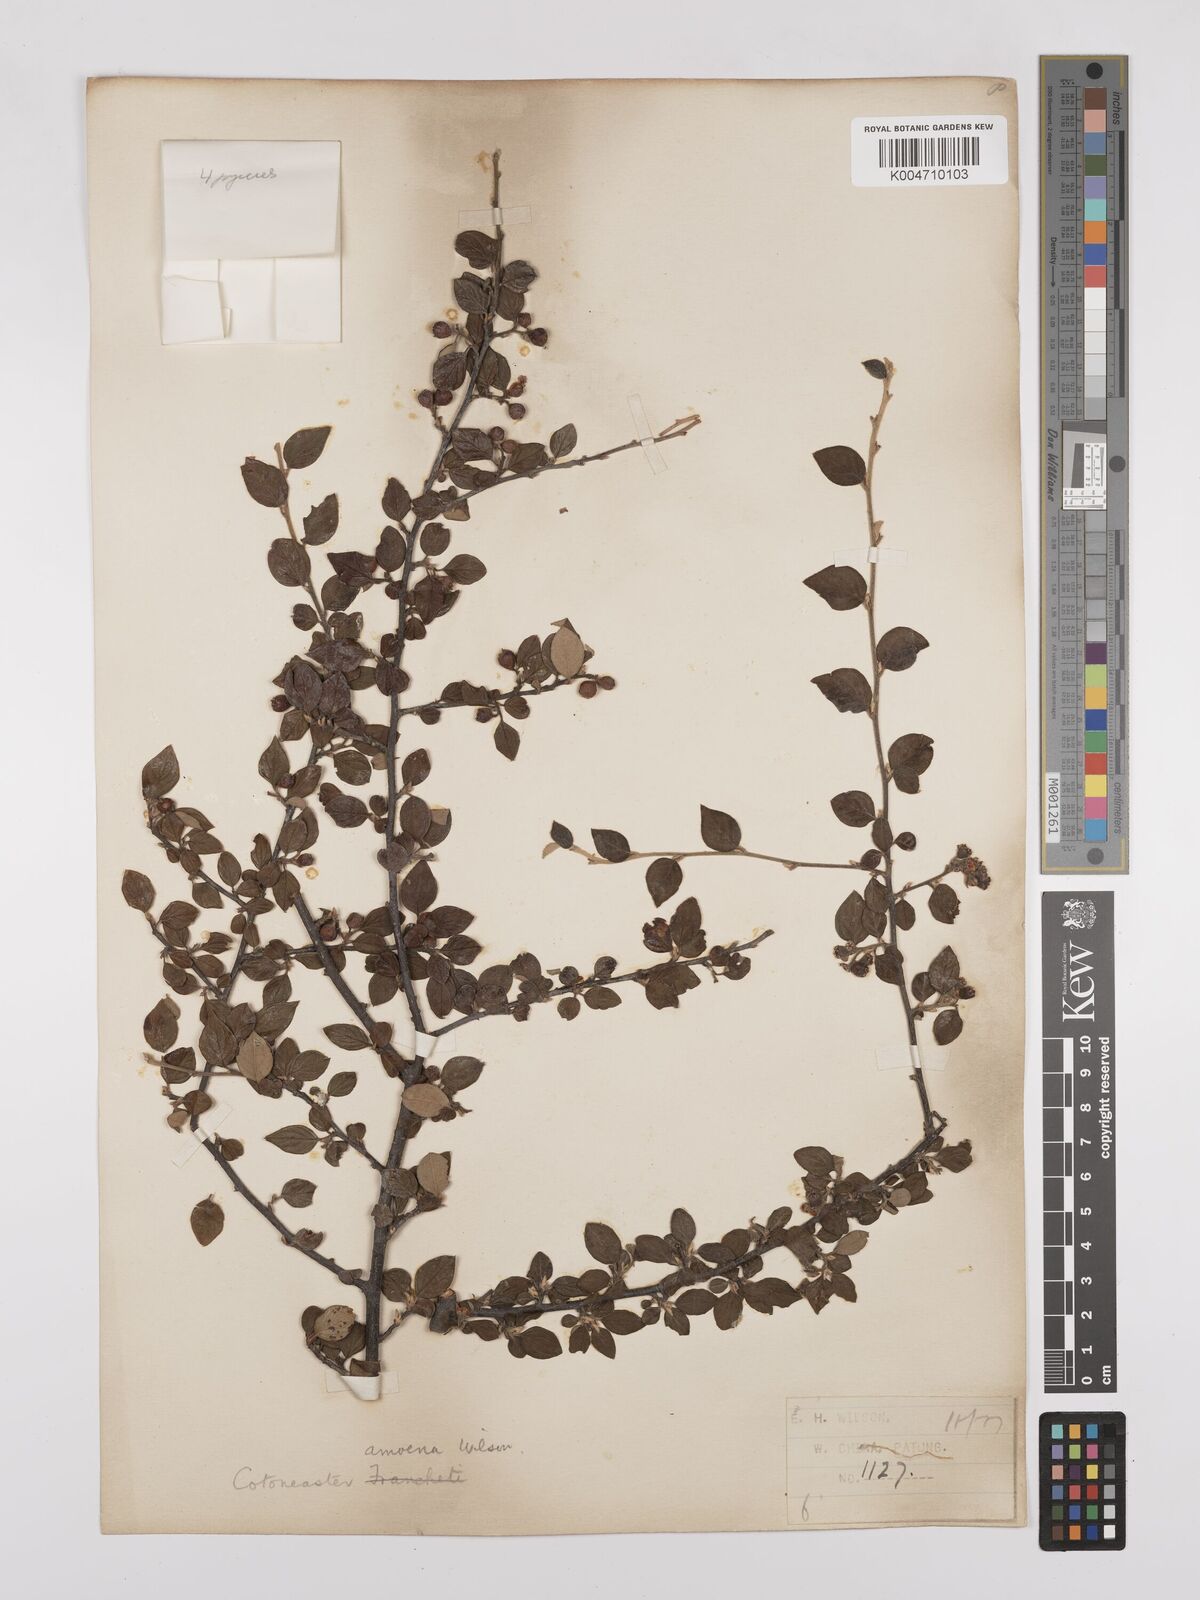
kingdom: Plantae
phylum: Tracheophyta
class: Magnoliopsida
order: Rosales
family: Rosaceae
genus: Cotoneaster
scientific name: Cotoneaster dielsianus
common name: Diels's cotoneaster
